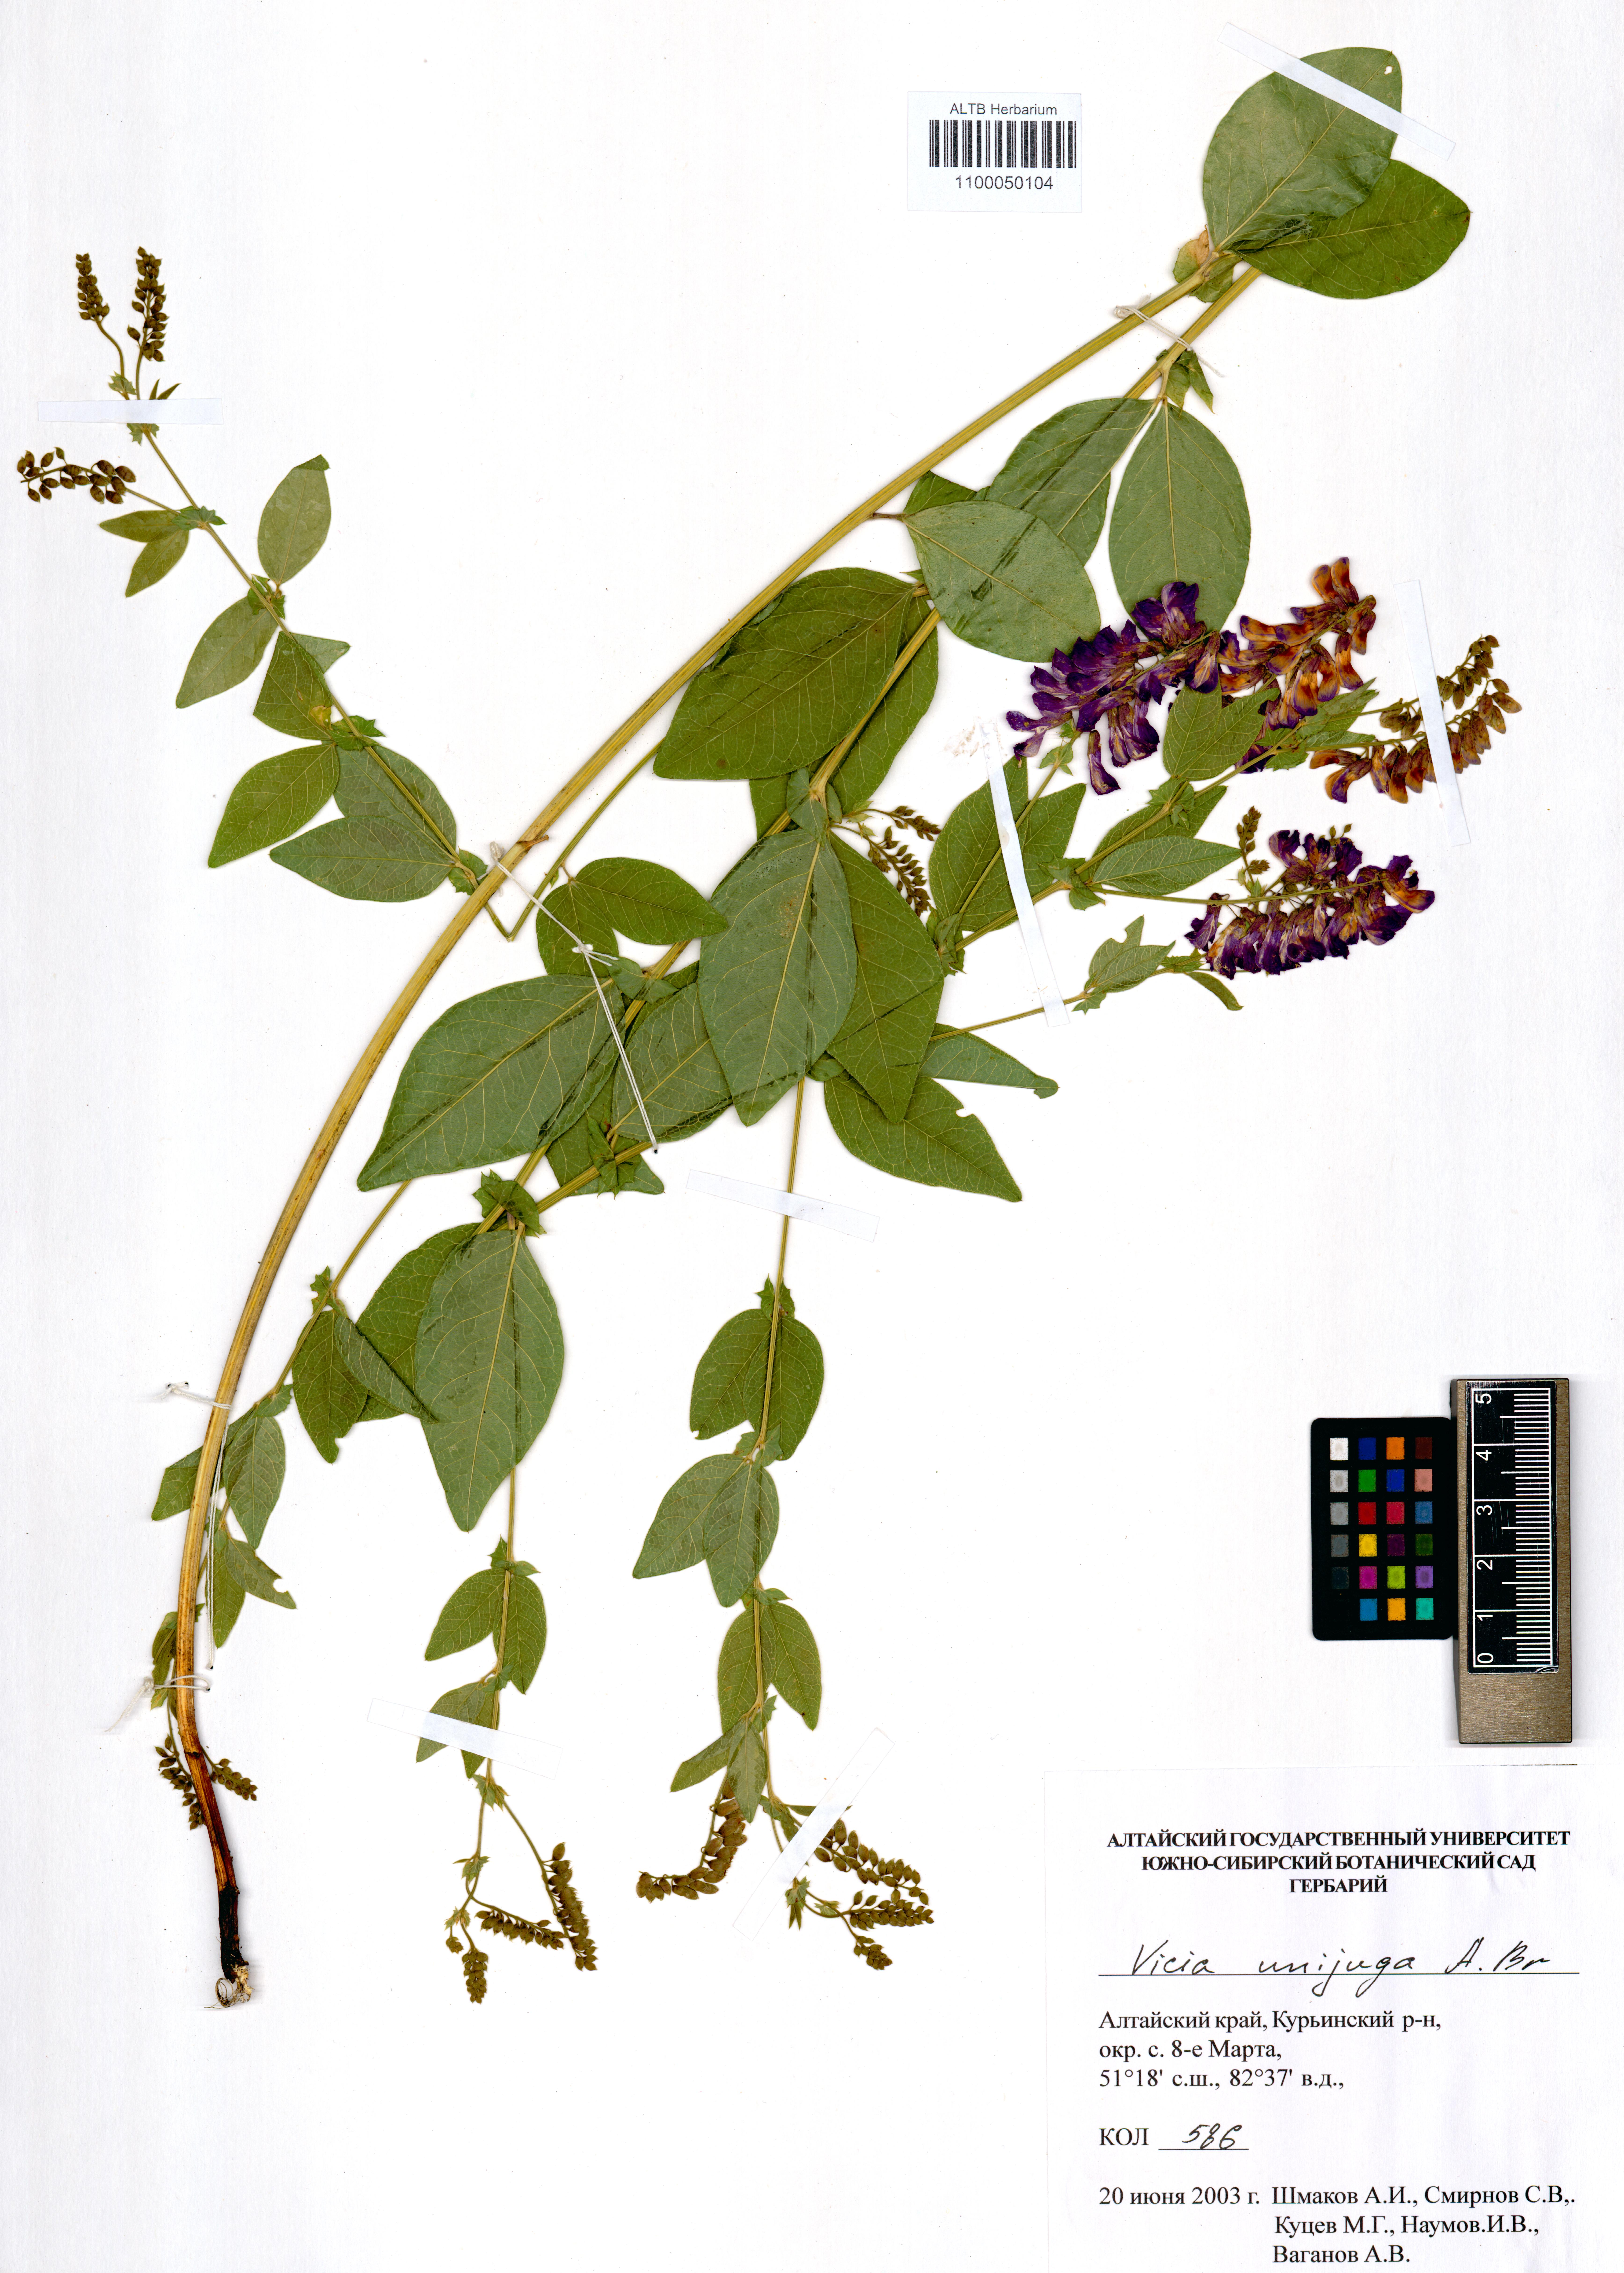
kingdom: Plantae
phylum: Tracheophyta
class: Magnoliopsida
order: Fabales
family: Fabaceae
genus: Vicia
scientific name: Vicia unijuga
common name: Two-leaf vetch
